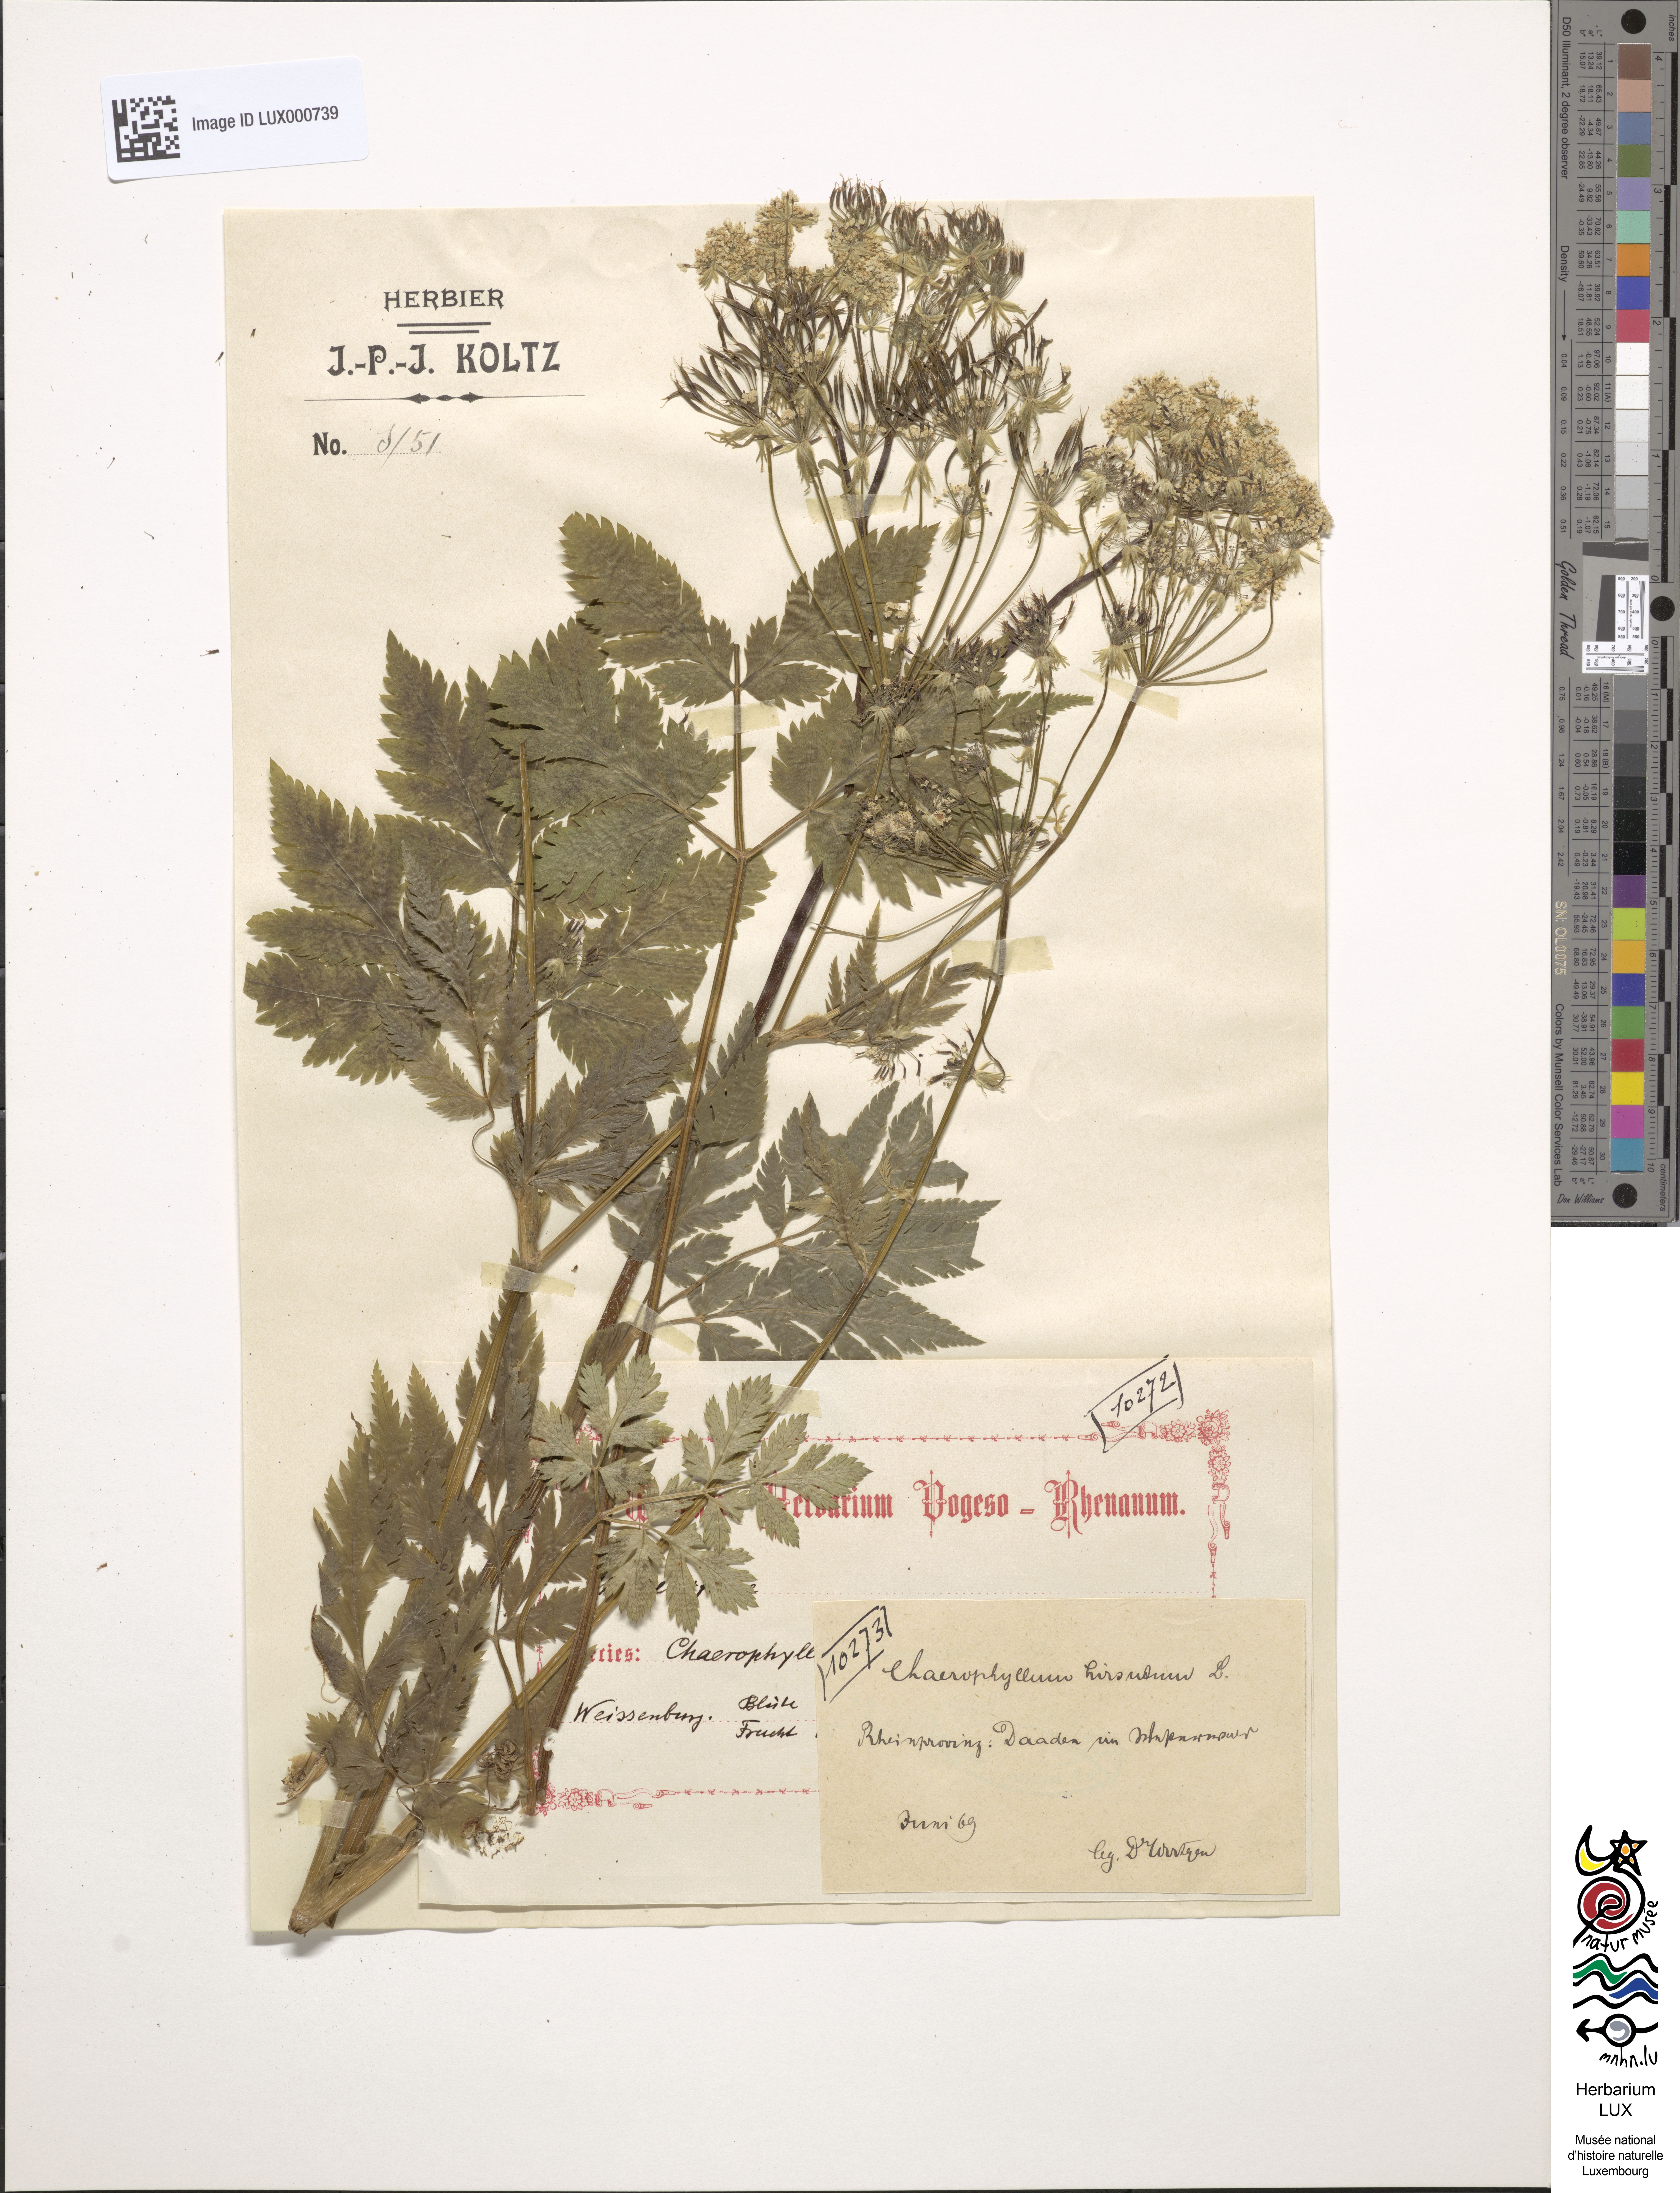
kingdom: Plantae
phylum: Tracheophyta
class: Magnoliopsida
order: Apiales
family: Apiaceae
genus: Chaerophyllum
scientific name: Chaerophyllum hirsutum
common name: Hairy chervil
